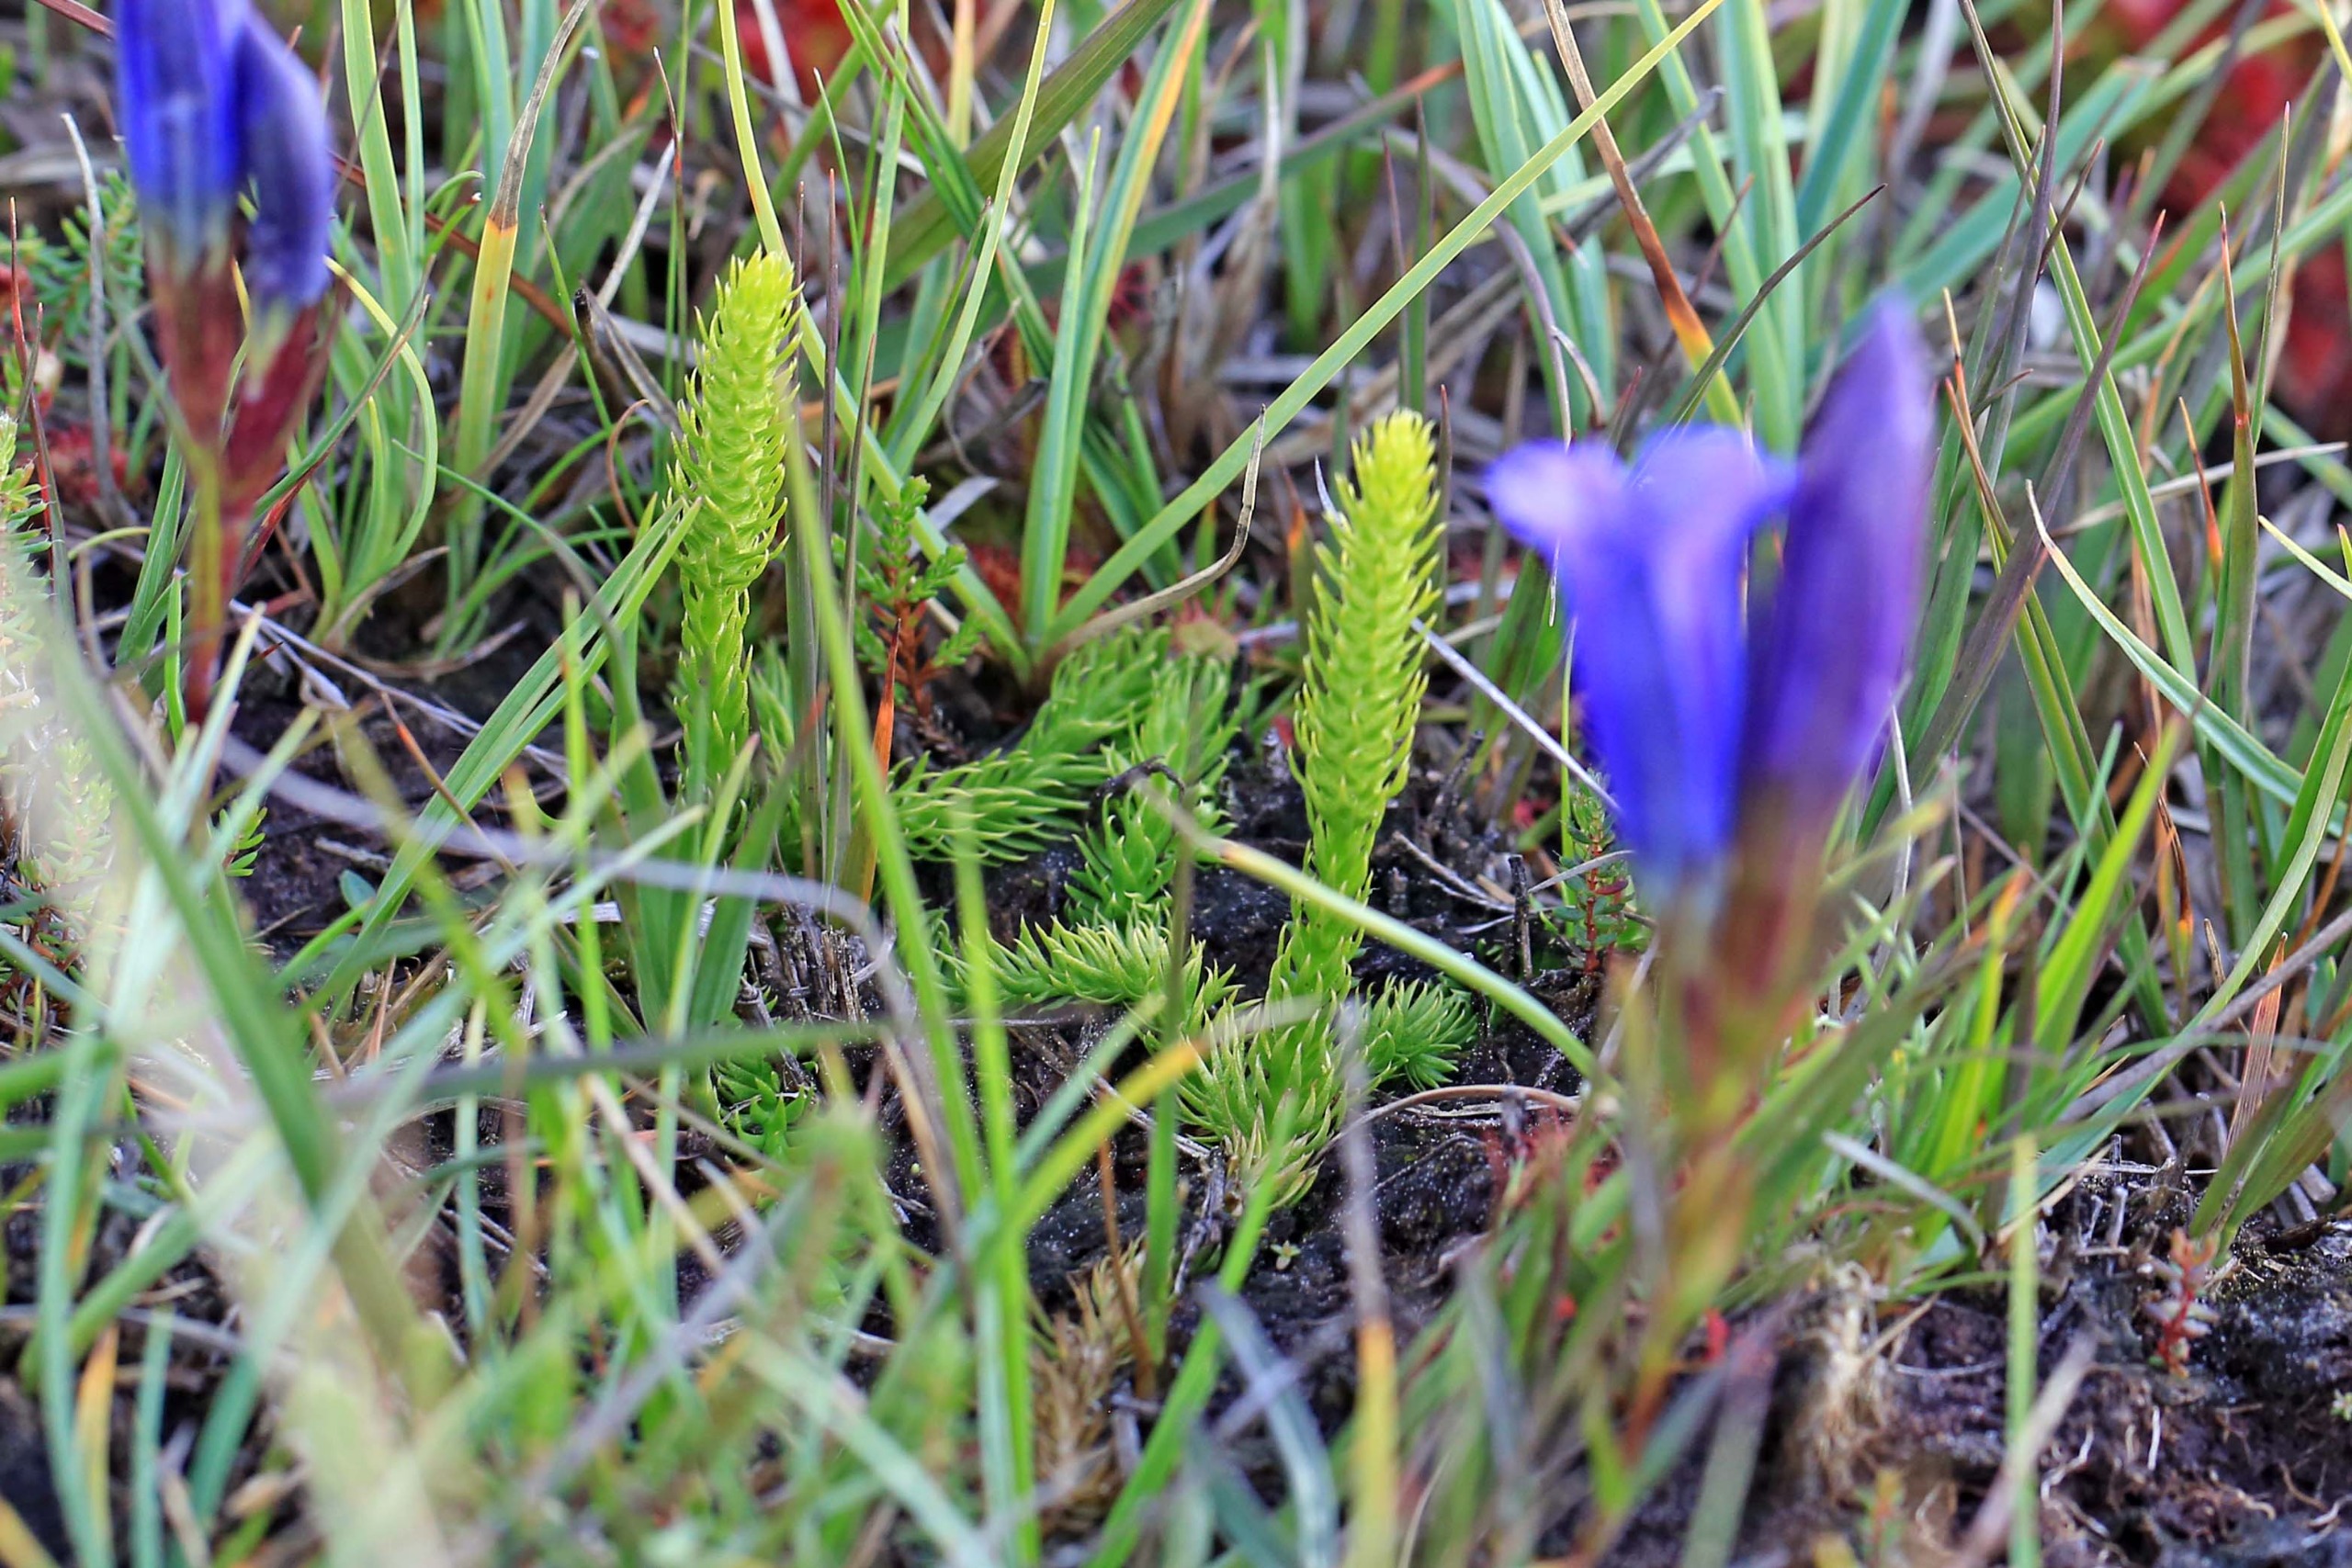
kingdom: Plantae
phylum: Tracheophyta
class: Lycopodiopsida
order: Lycopodiales
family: Lycopodiaceae
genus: Lycopodiella
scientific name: Lycopodiella inundata
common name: Liden ulvefod
